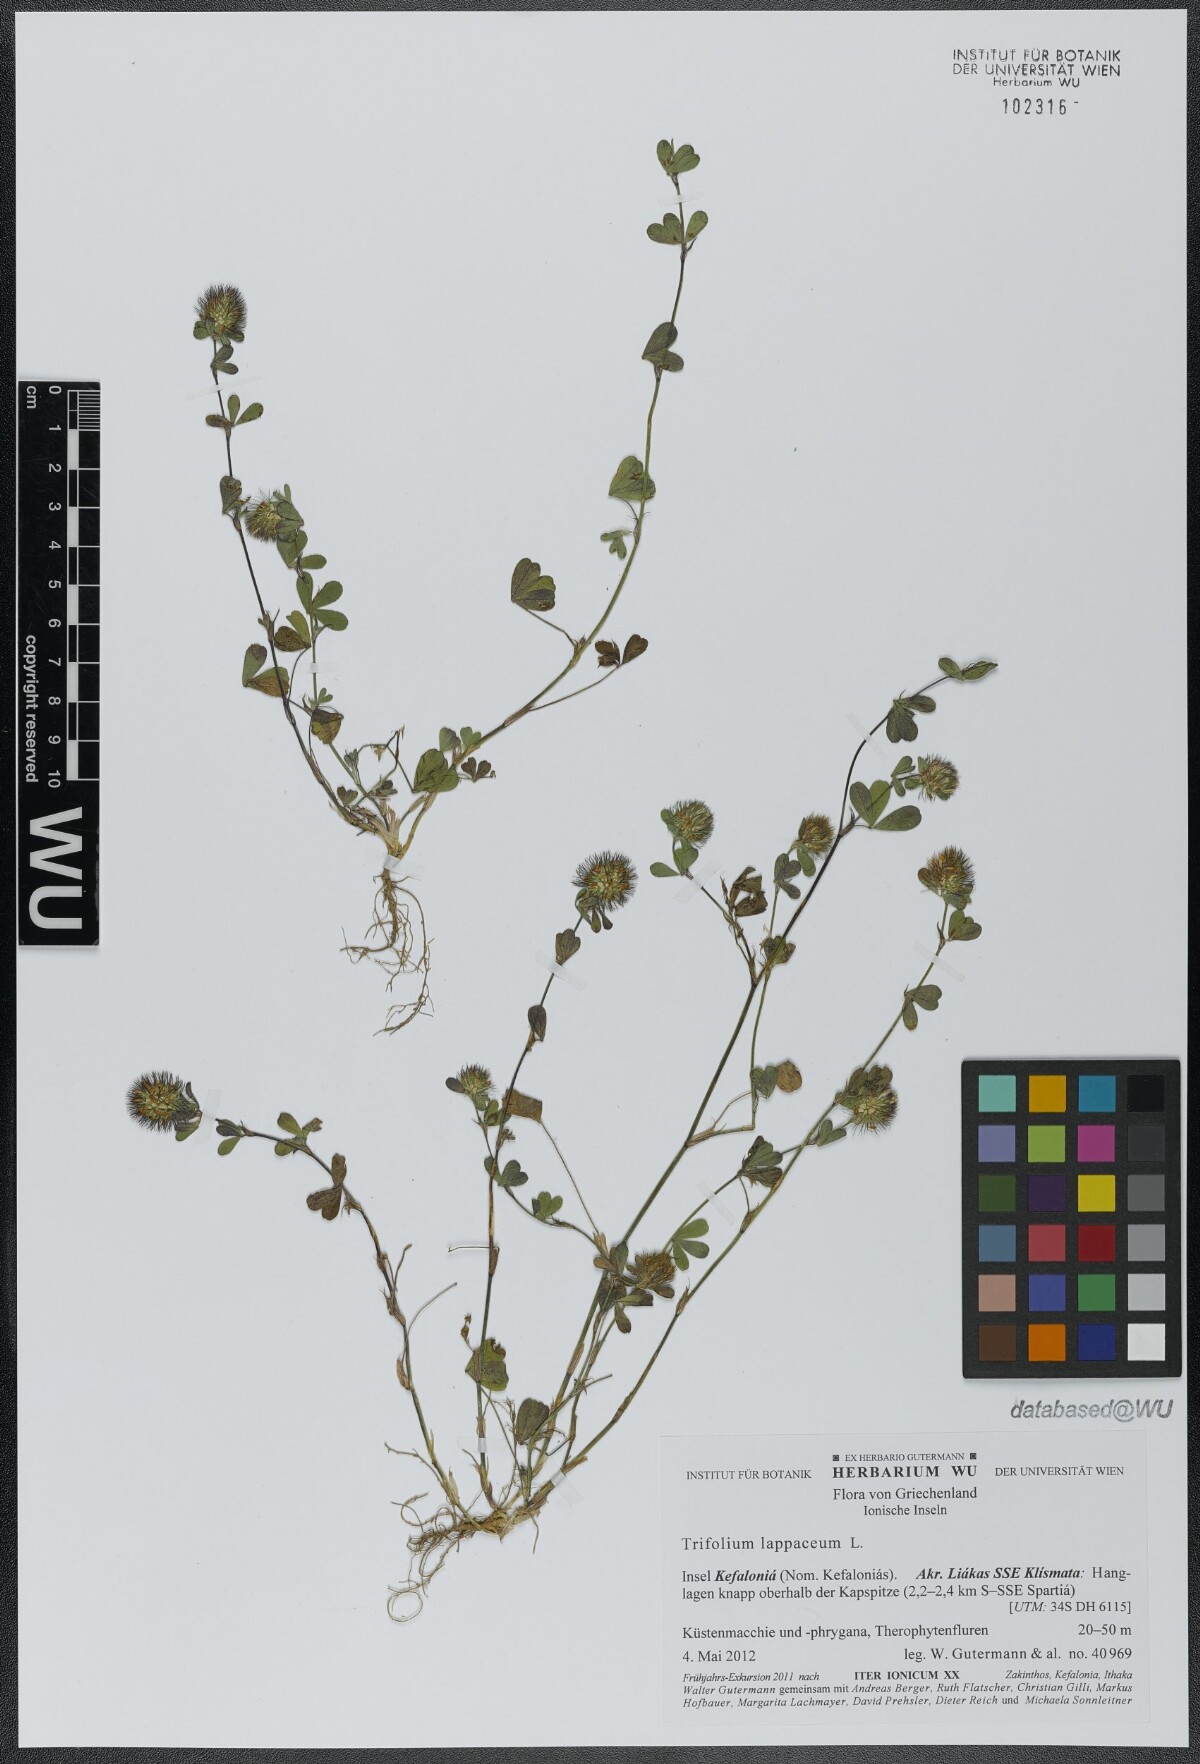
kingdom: Plantae
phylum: Tracheophyta
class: Magnoliopsida
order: Fabales
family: Fabaceae
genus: Trifolium
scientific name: Trifolium lappaceum
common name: Bur clover
